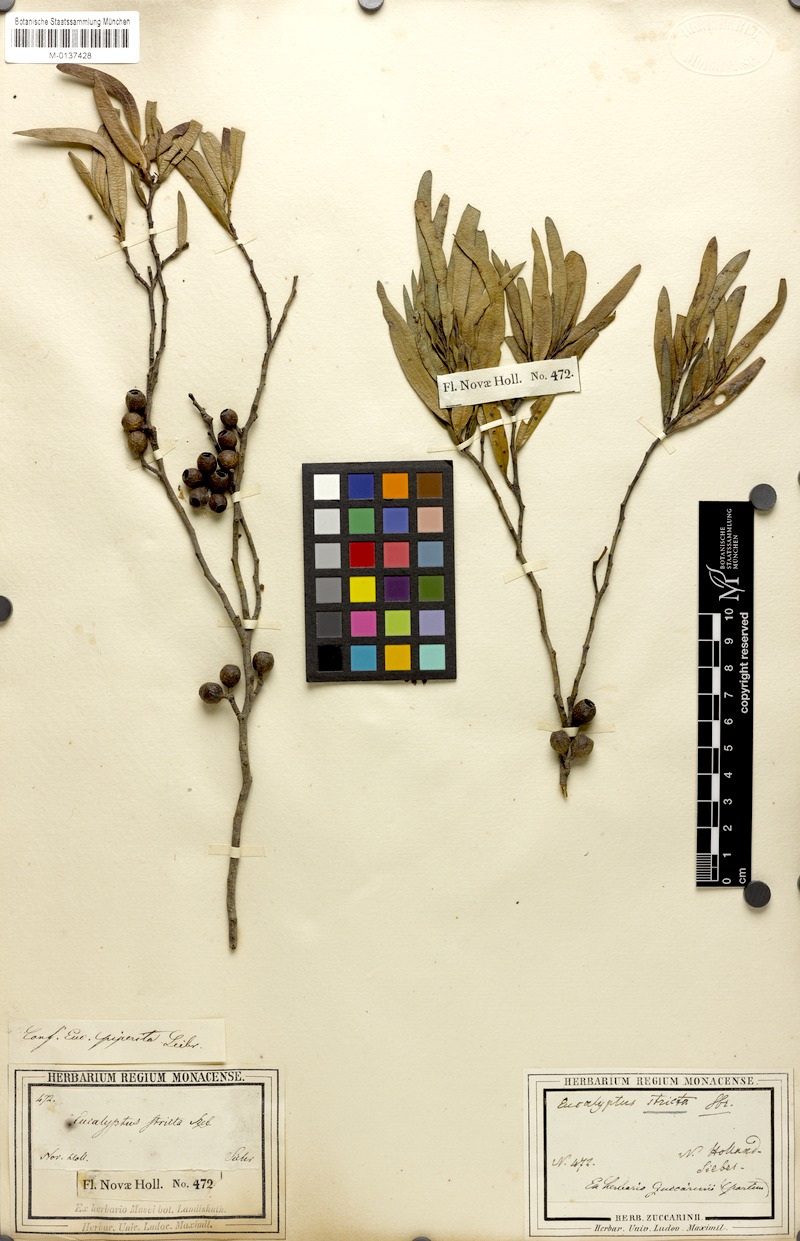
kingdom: Plantae
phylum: Tracheophyta
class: Magnoliopsida
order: Myrtales
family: Myrtaceae
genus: Eucalyptus
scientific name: Eucalyptus stricta
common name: Blue-mountain-malle-ash
